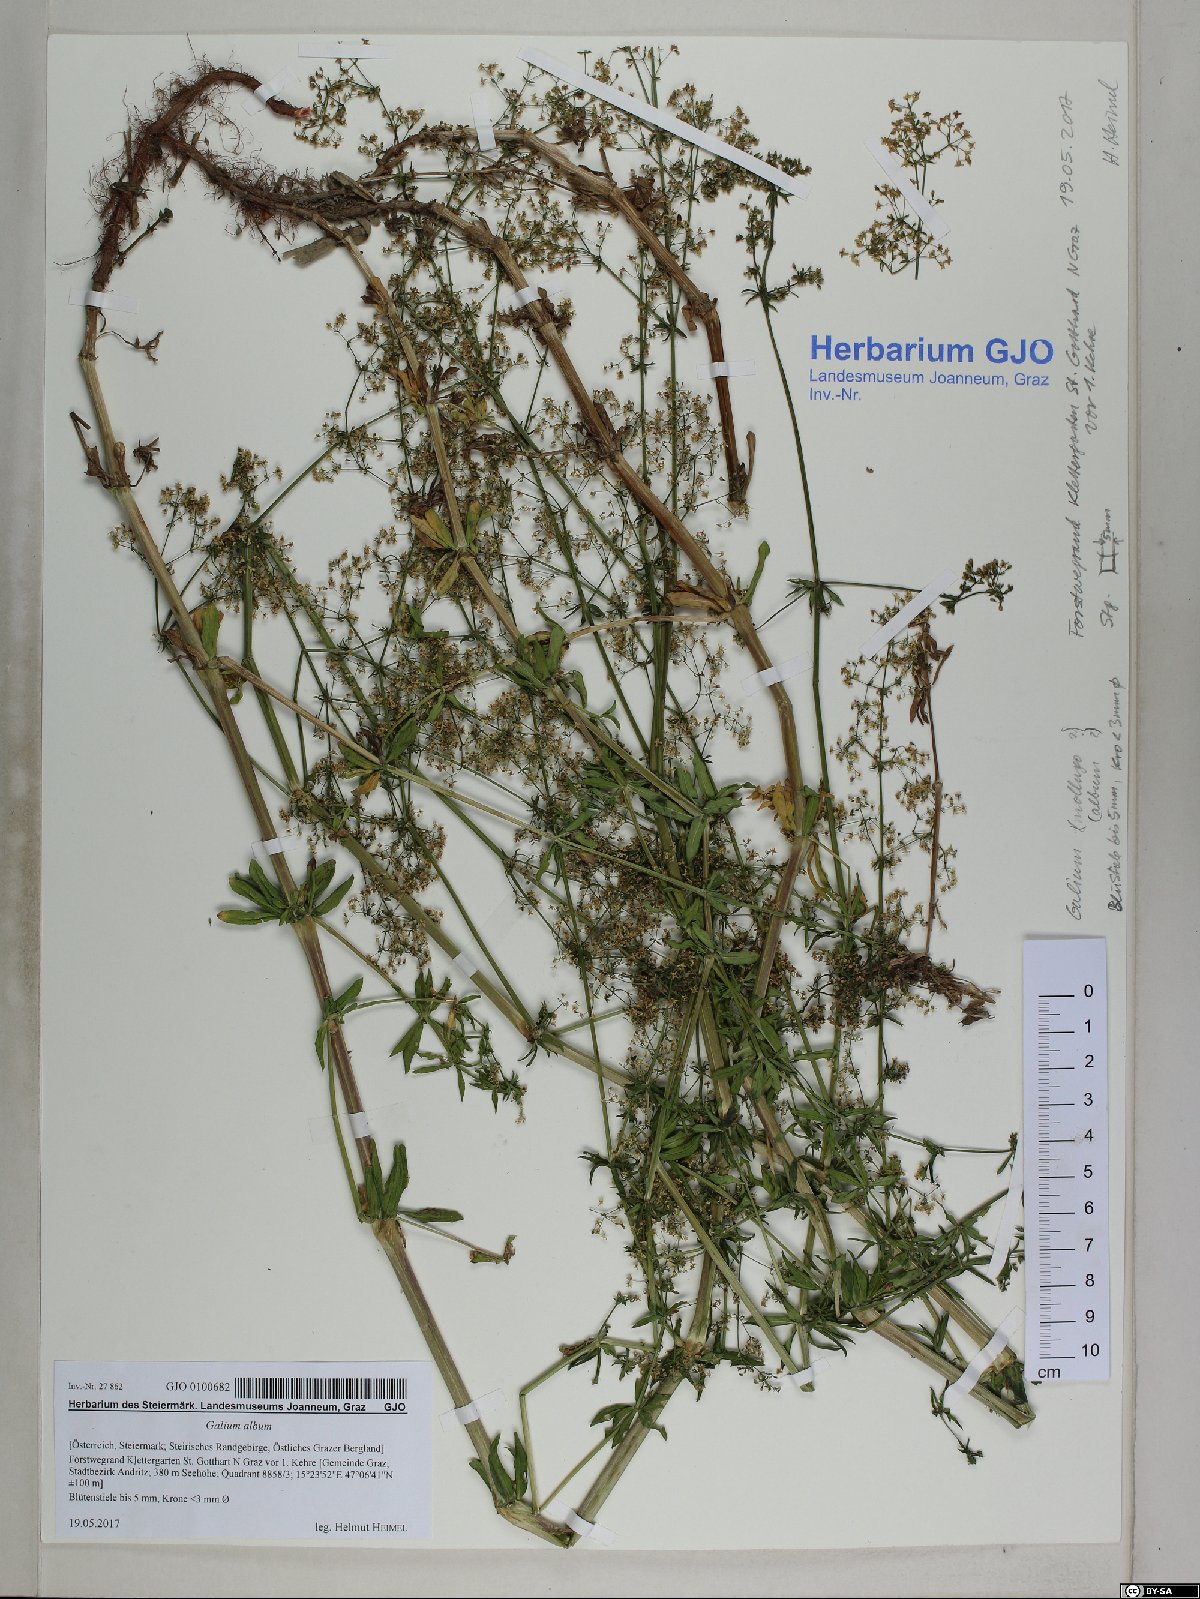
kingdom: Plantae
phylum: Tracheophyta
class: Magnoliopsida
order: Gentianales
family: Rubiaceae
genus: Galium
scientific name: Galium album
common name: White bedstraw
